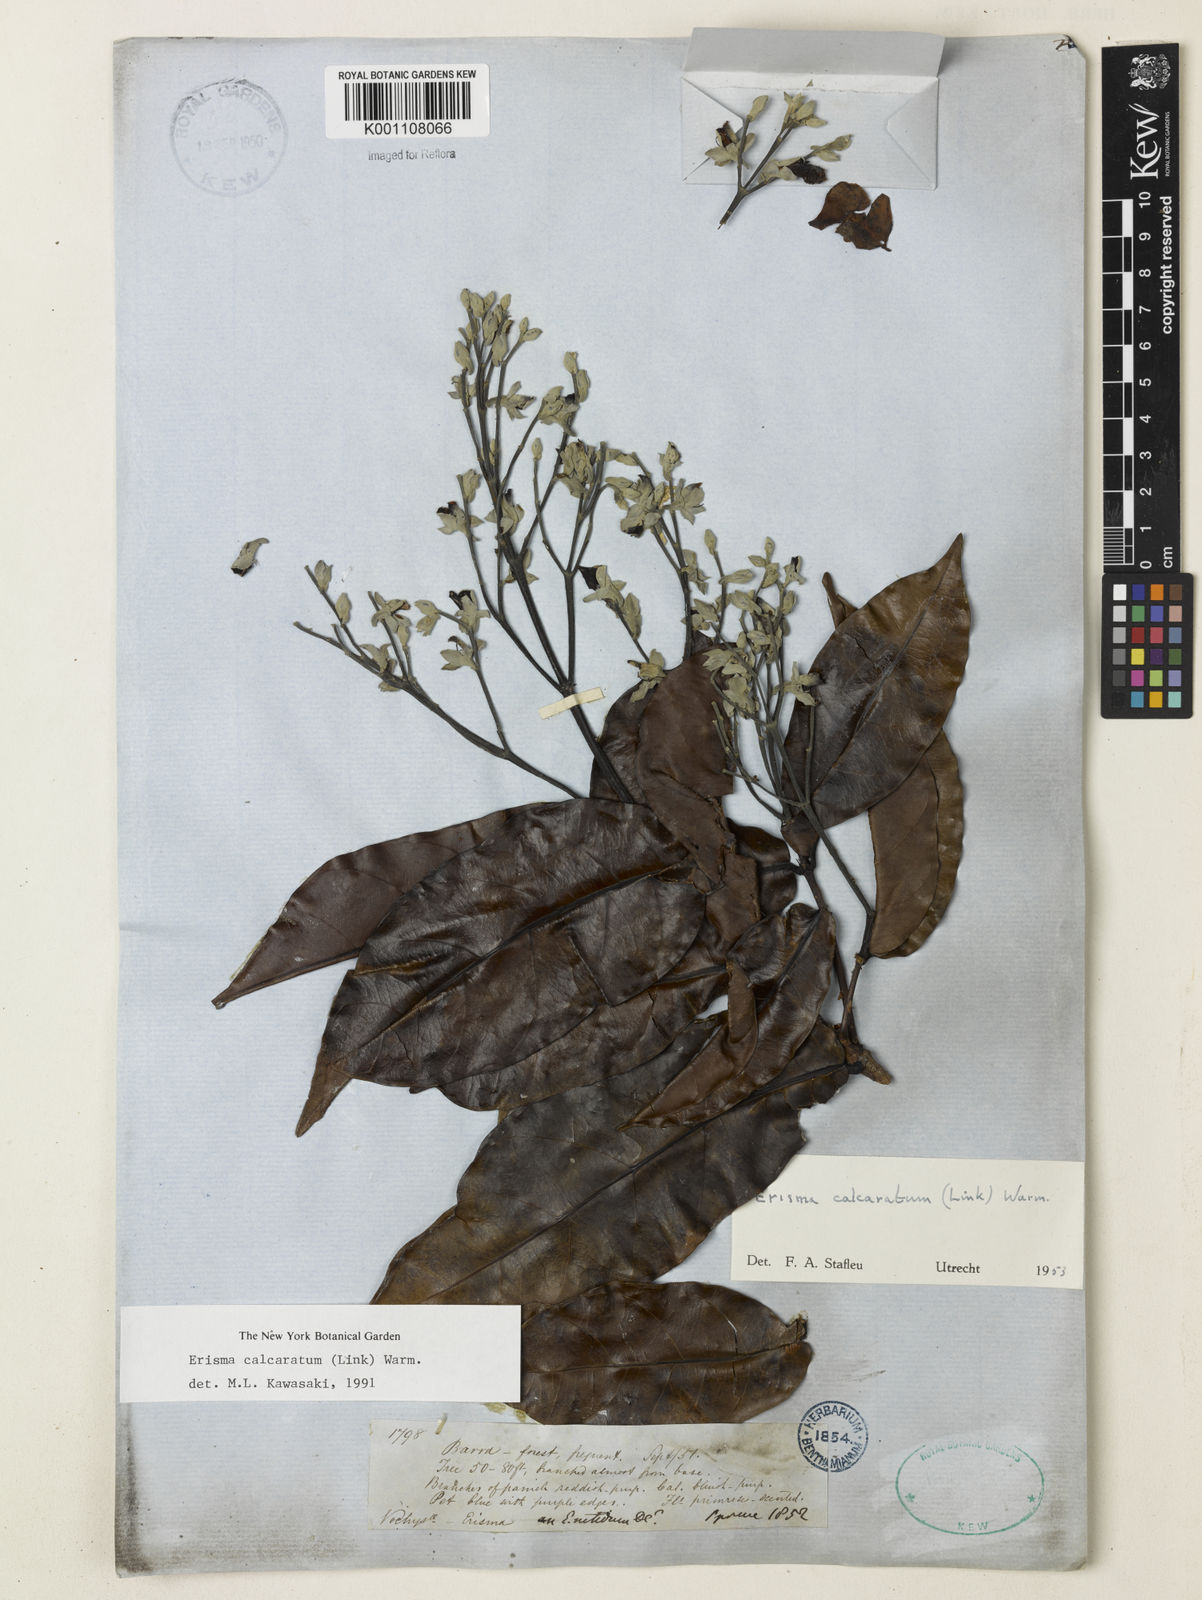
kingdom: Plantae
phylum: Tracheophyta
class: Magnoliopsida
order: Myrtales
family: Vochysiaceae
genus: Erisma
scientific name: Erisma calcaratum
